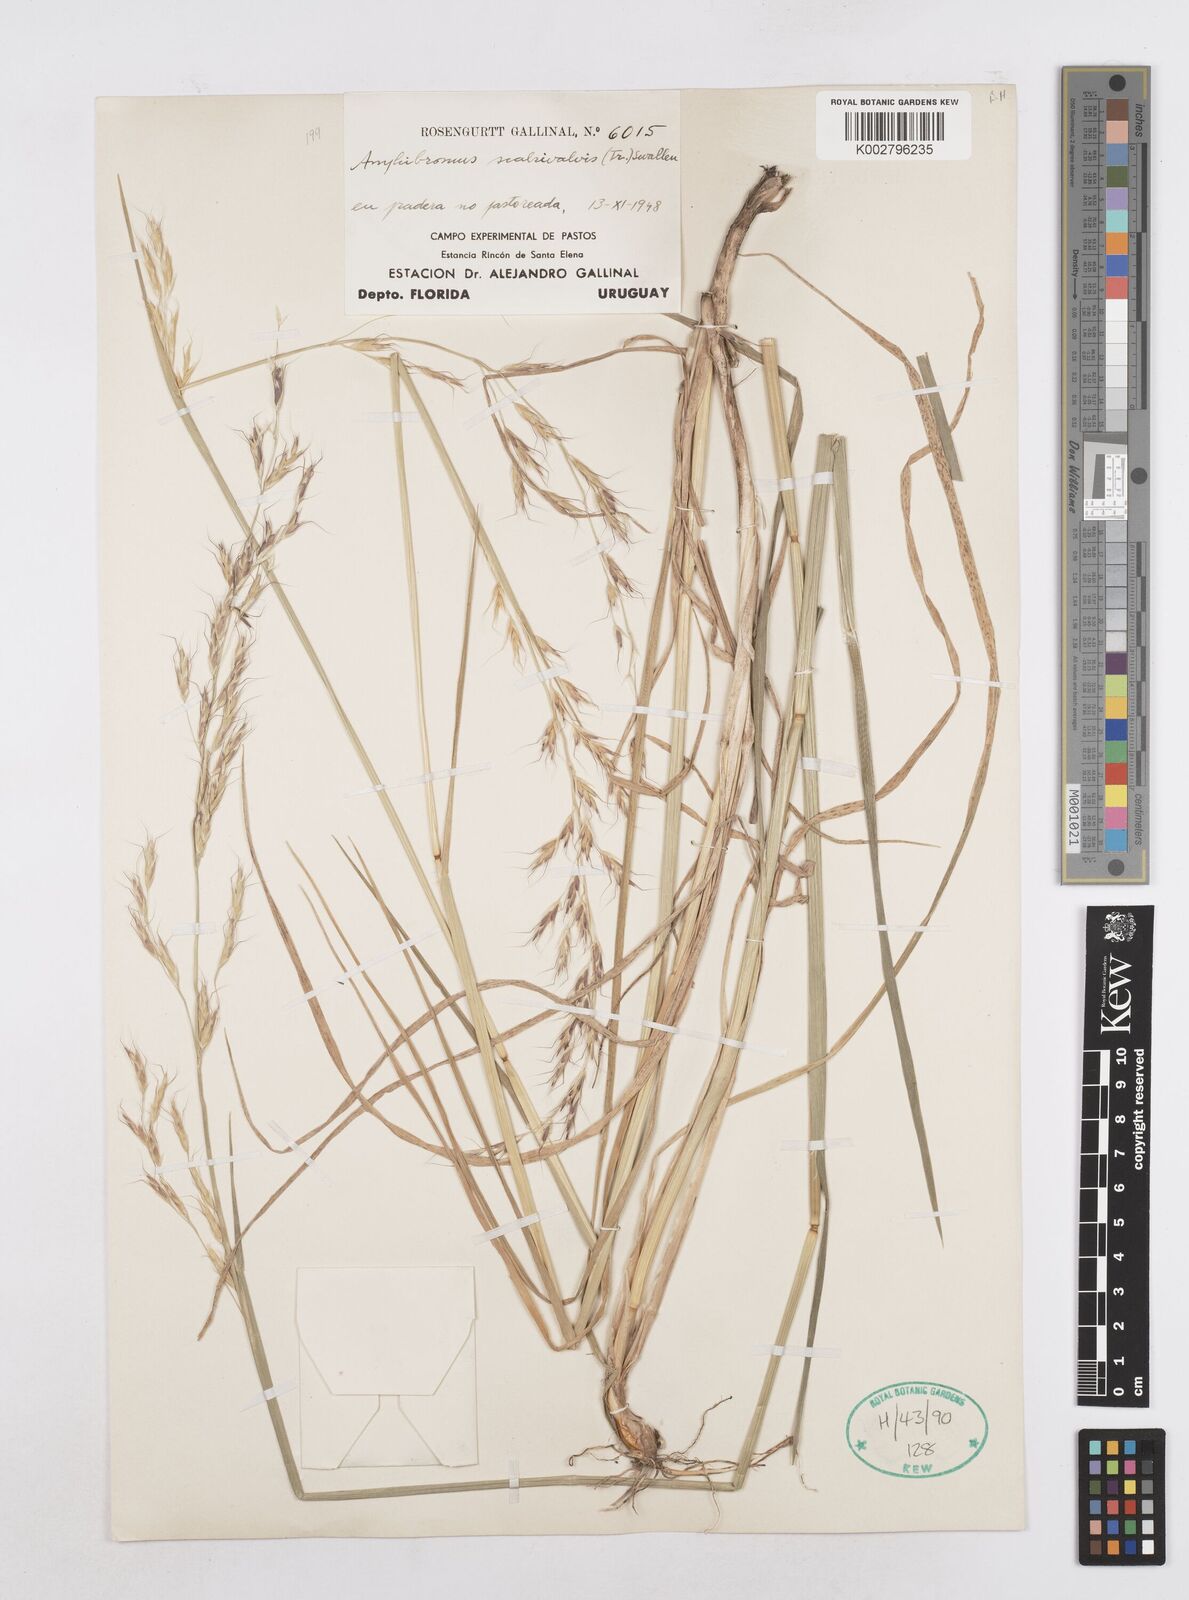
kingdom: Plantae
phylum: Tracheophyta
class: Liliopsida
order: Poales
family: Poaceae
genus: Helictotrichon
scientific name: Helictotrichon
